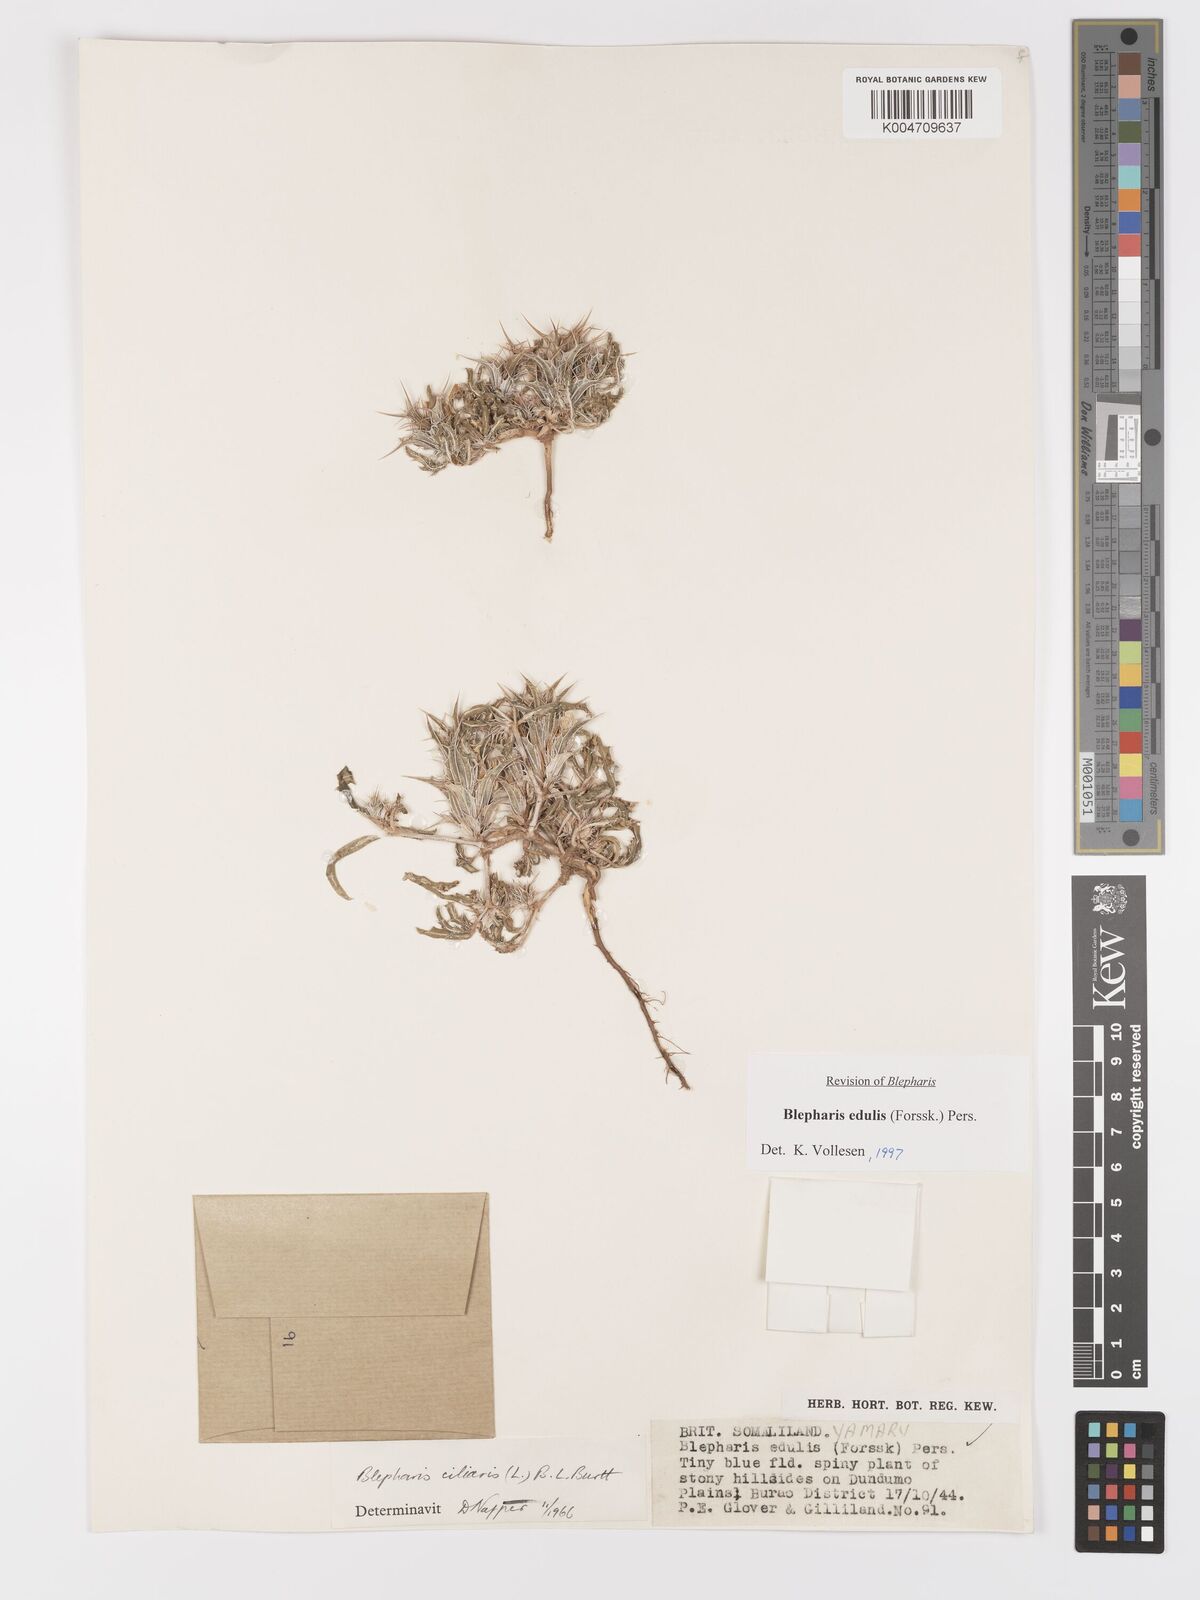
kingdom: Plantae
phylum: Tracheophyta
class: Magnoliopsida
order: Lamiales
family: Acanthaceae
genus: Blepharis
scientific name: Blepharis edulis
